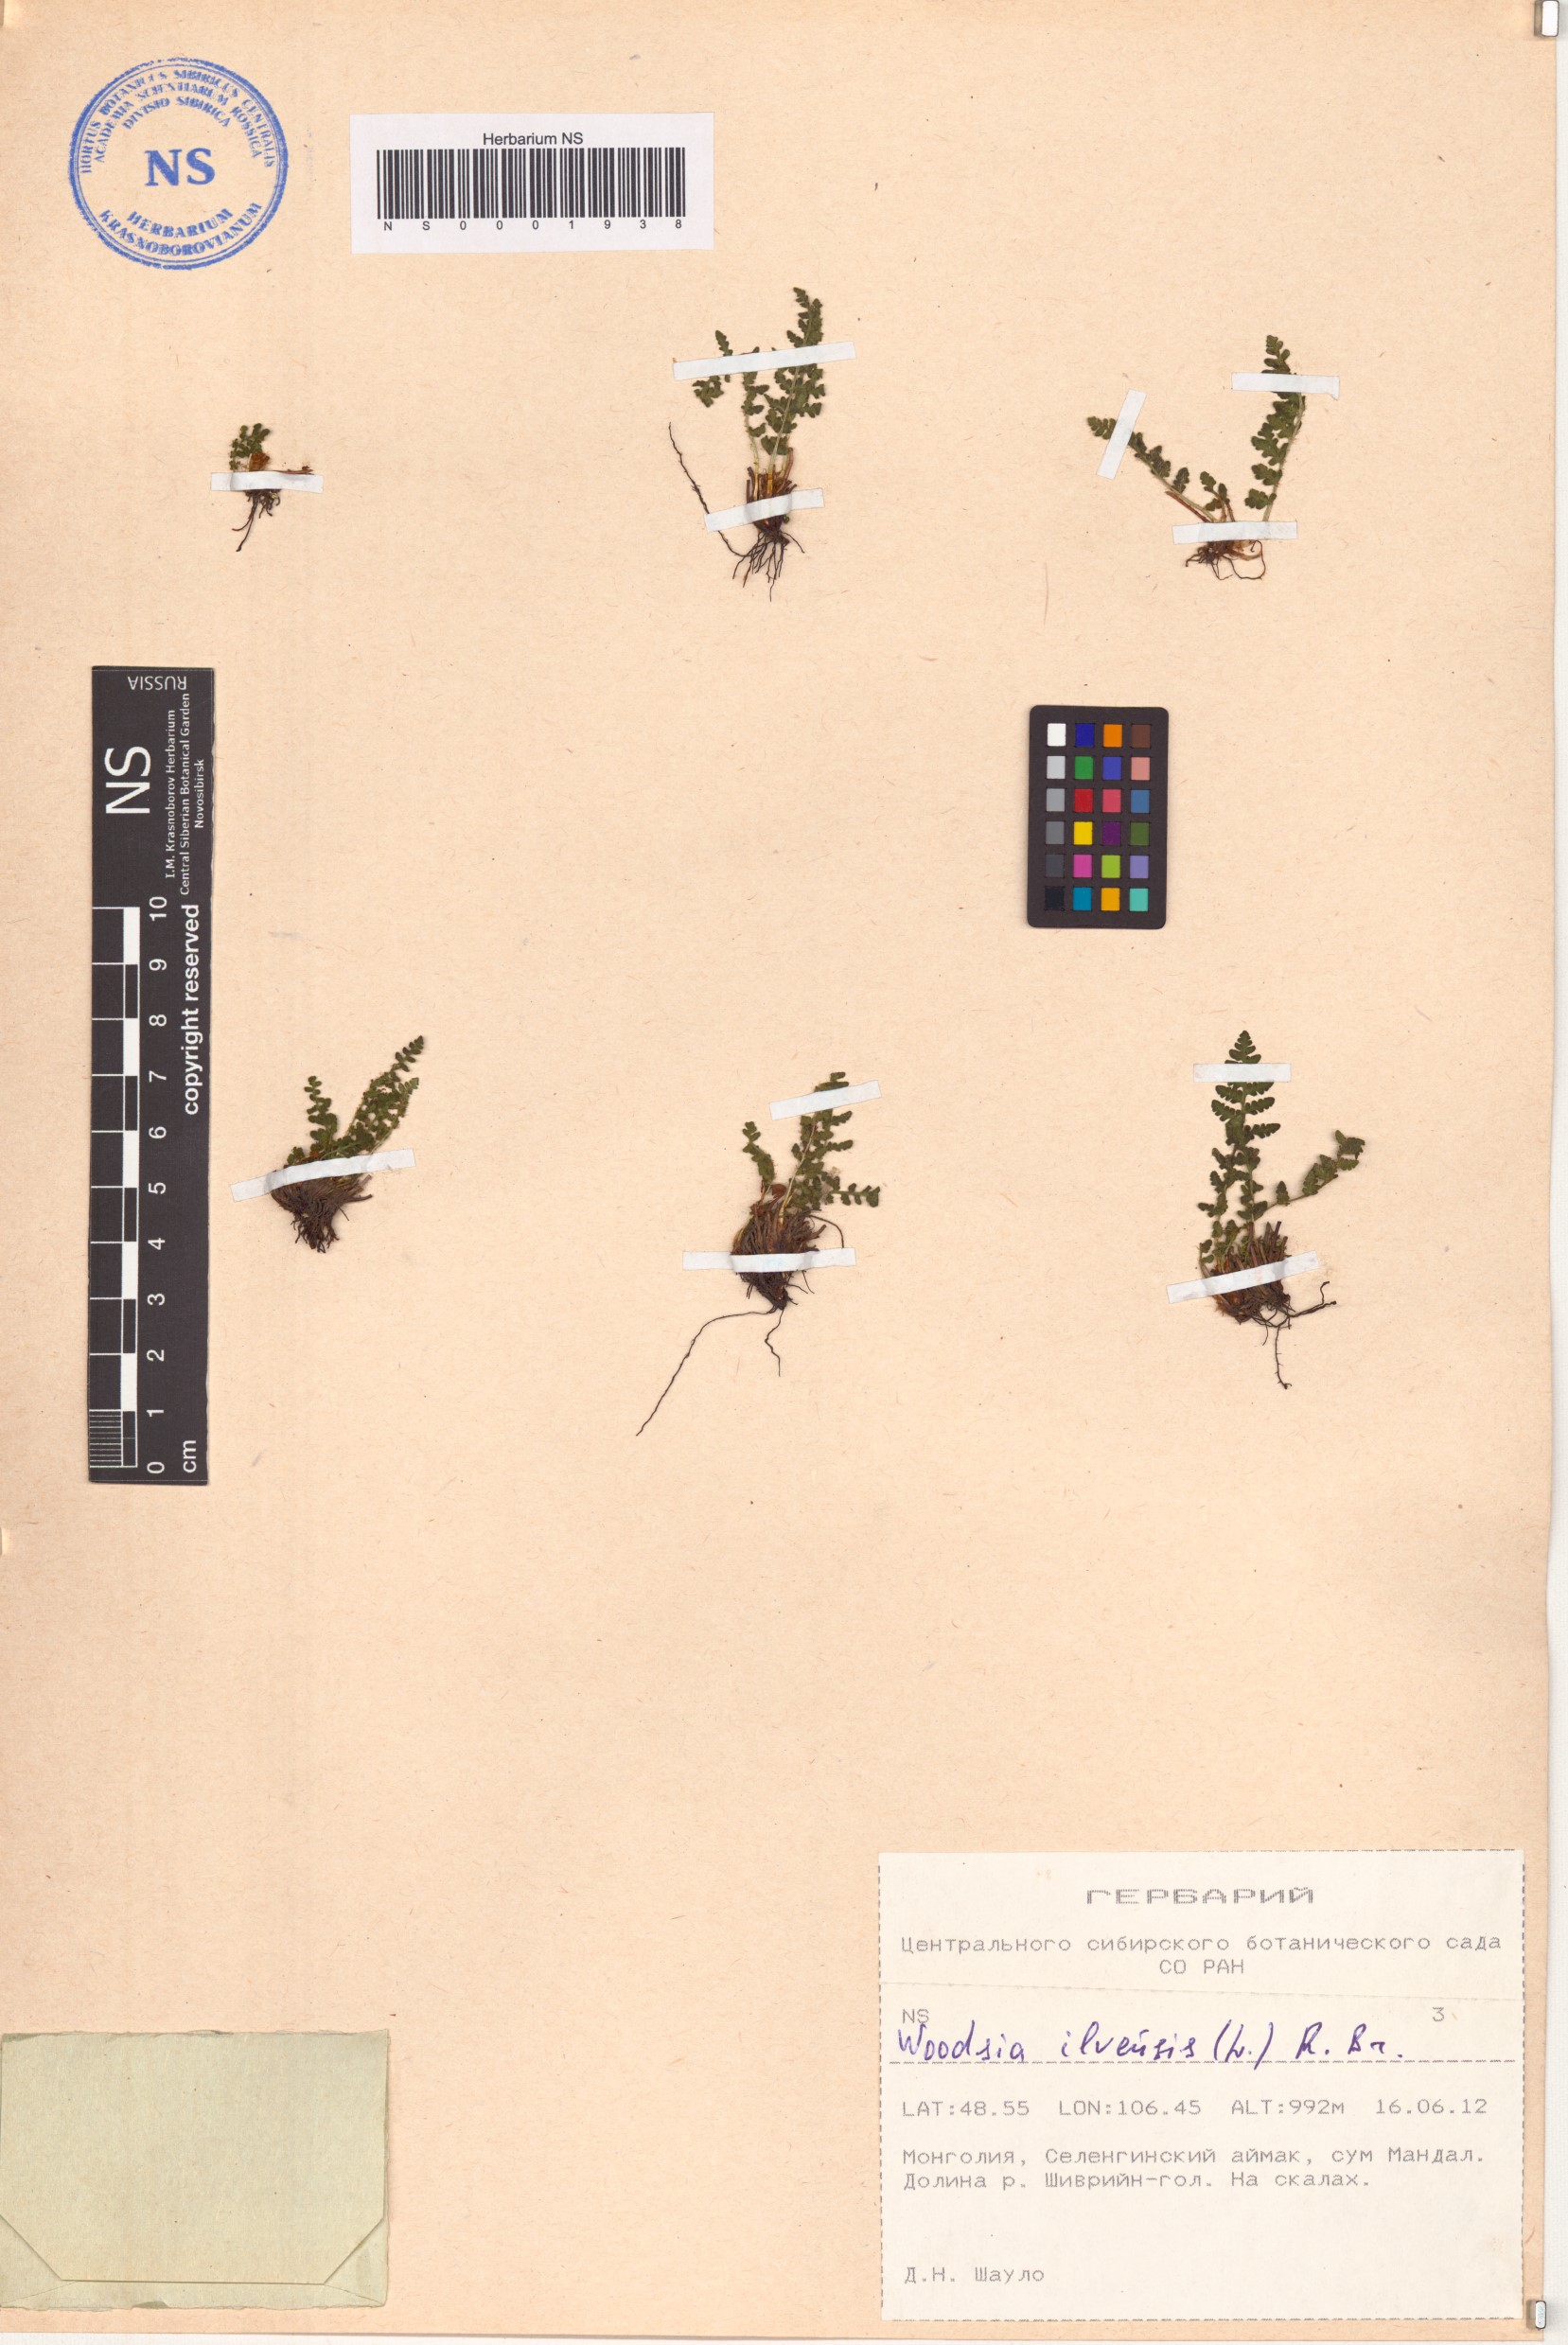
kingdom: Plantae
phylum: Tracheophyta
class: Polypodiopsida
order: Polypodiales
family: Woodsiaceae
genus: Woodsia
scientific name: Woodsia ilvensis
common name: Fragrant woodsia
